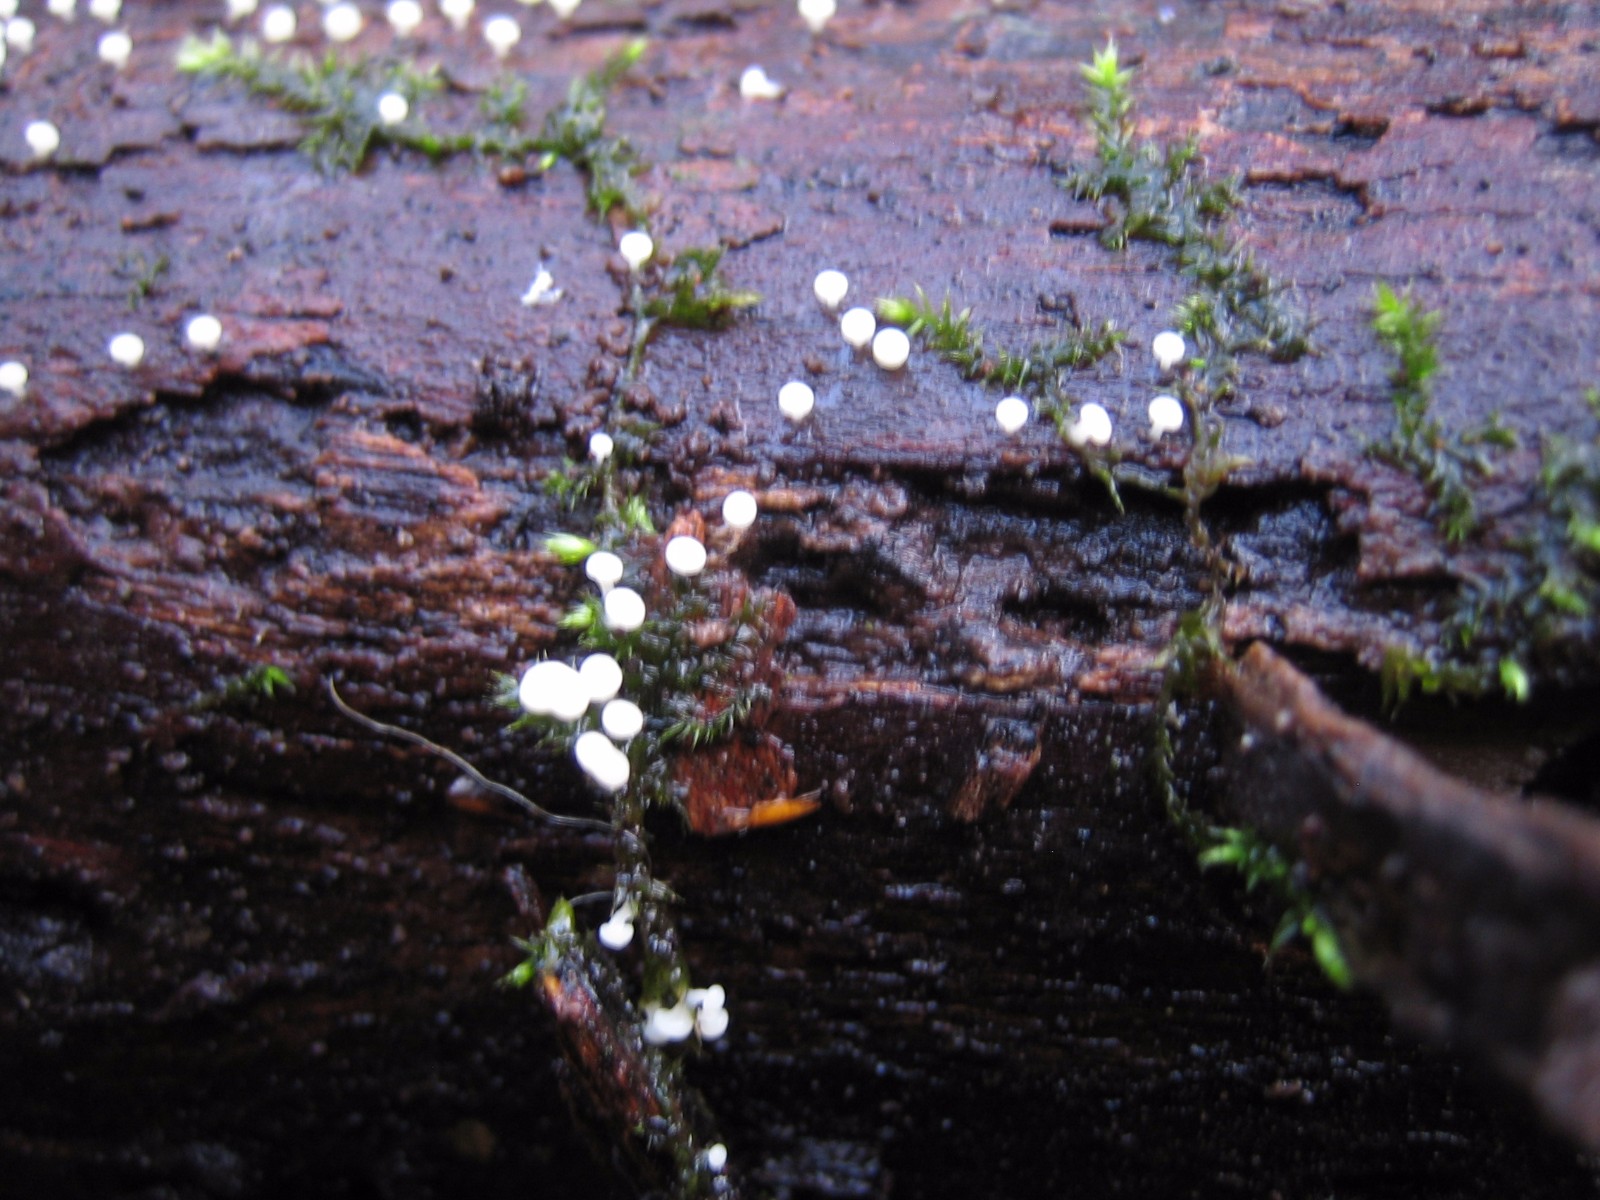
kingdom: Protozoa
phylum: Mycetozoa
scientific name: Mycetozoa
